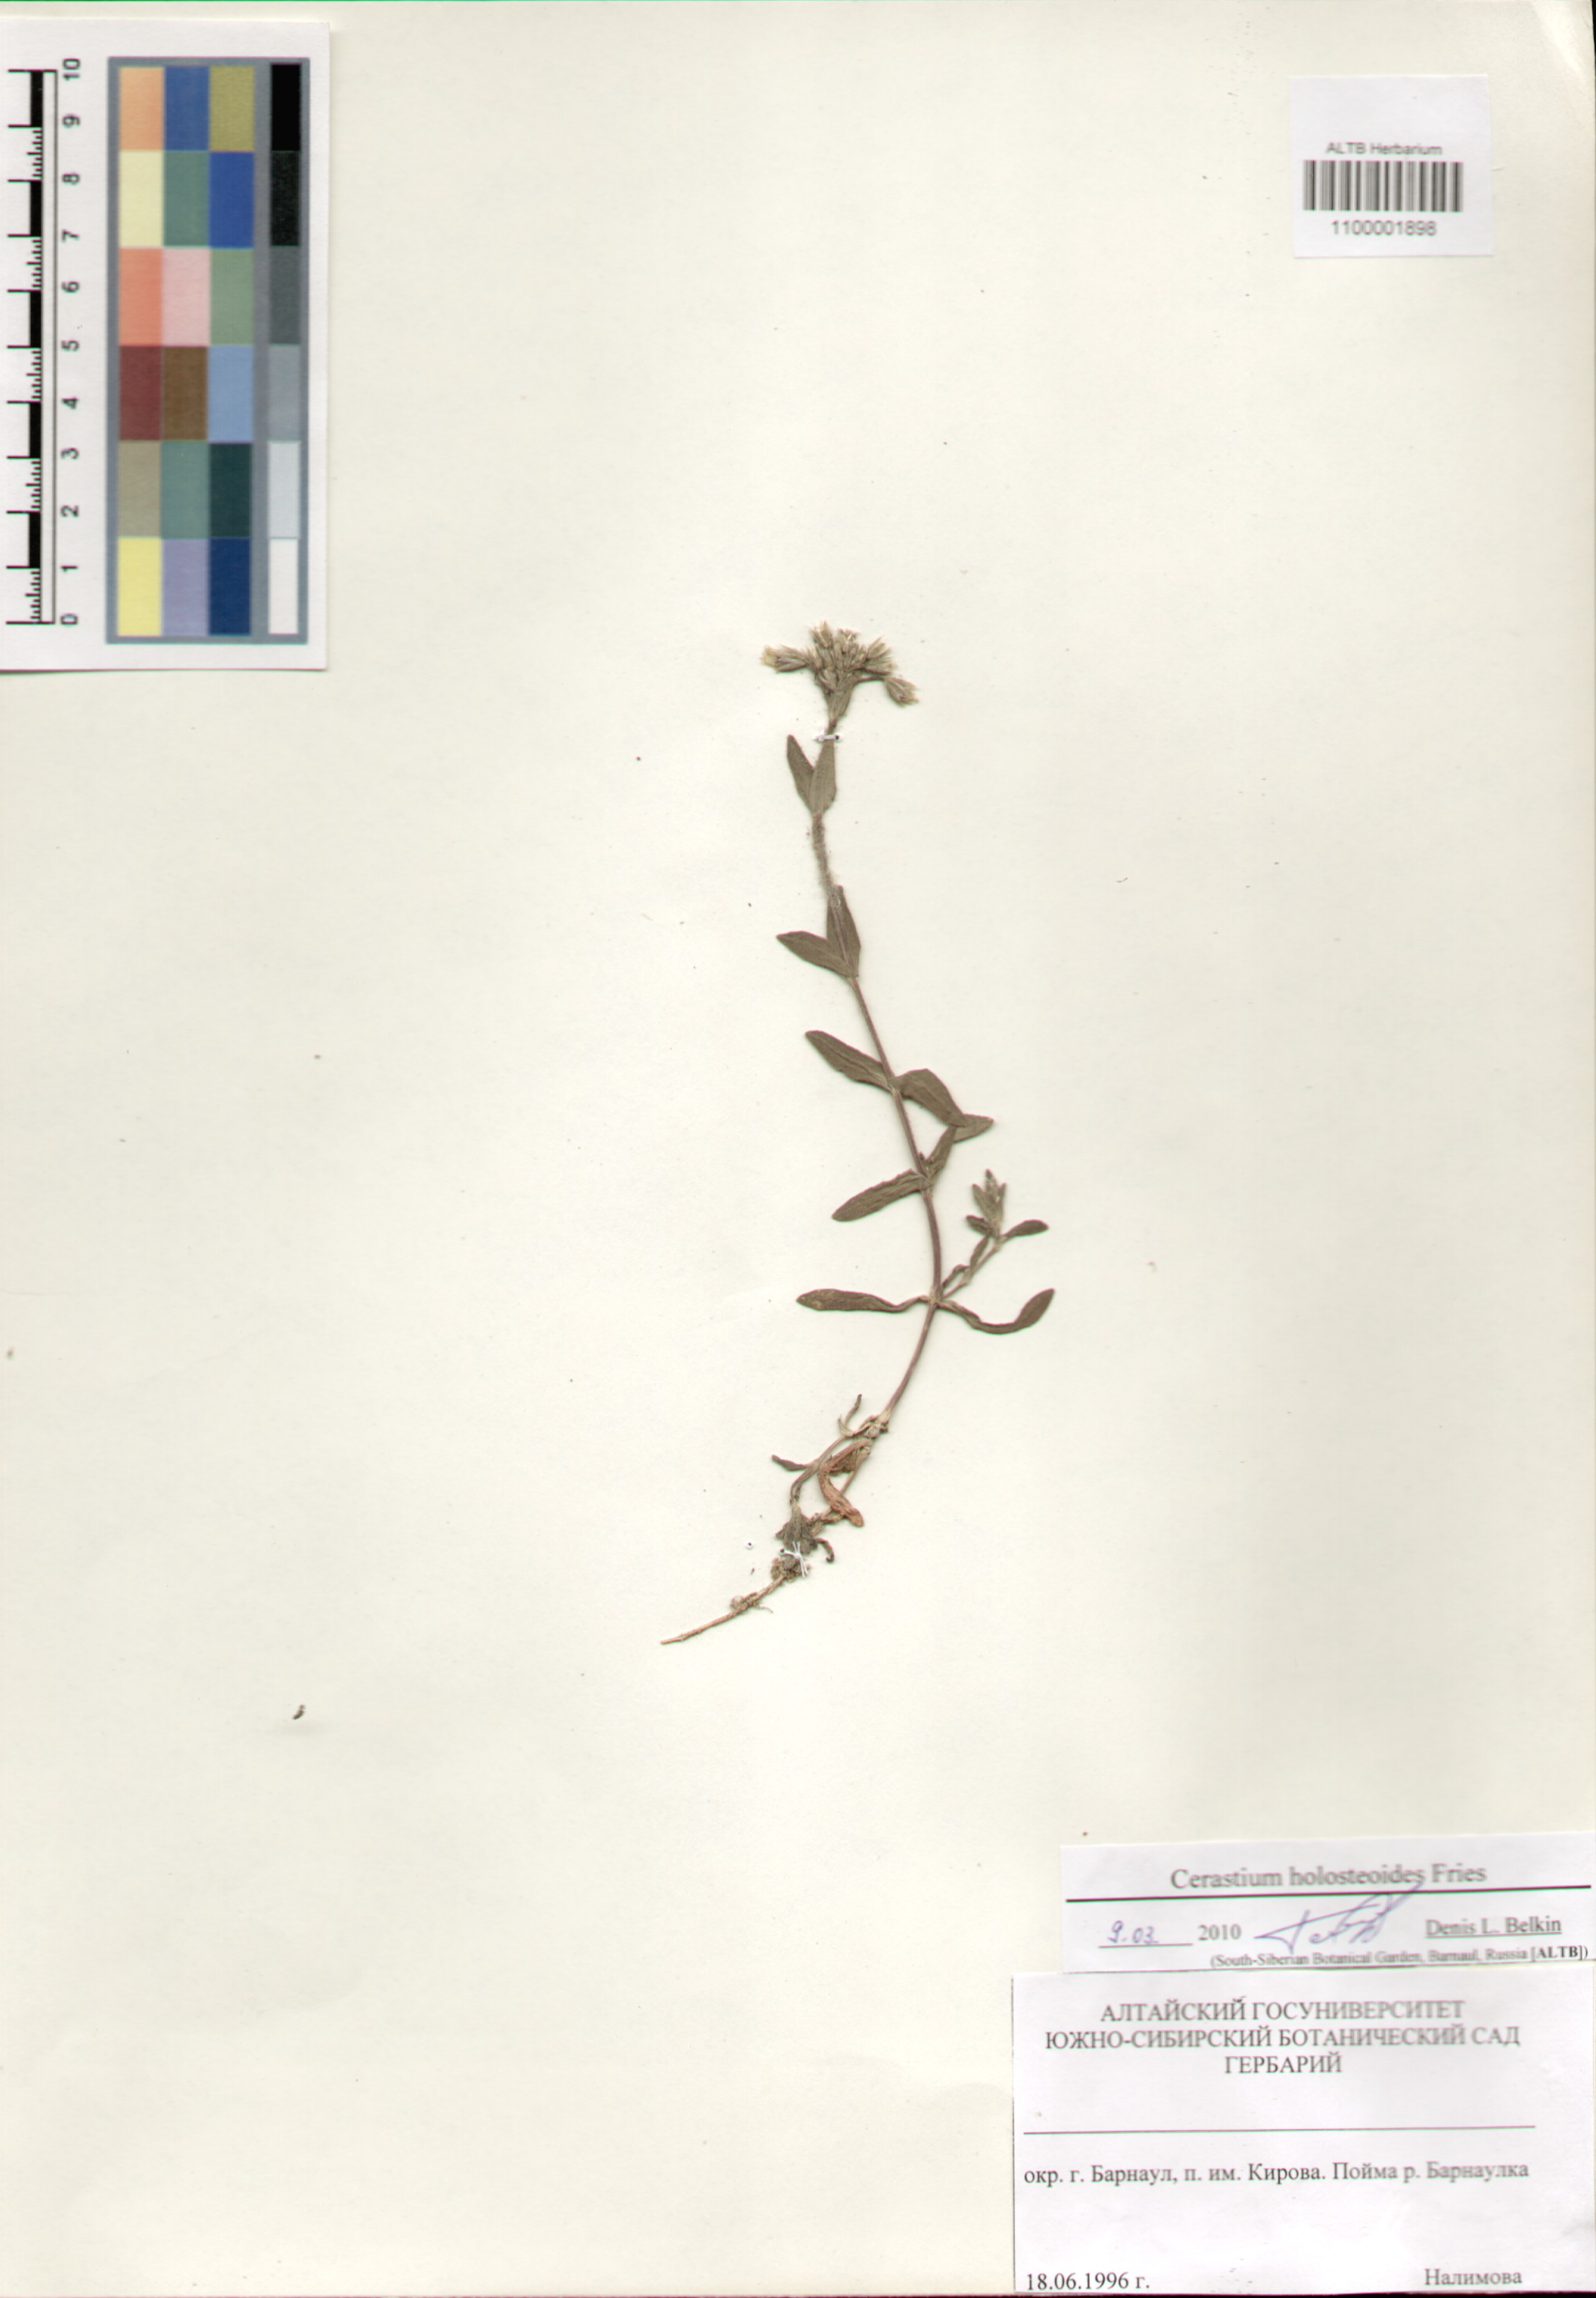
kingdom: Plantae
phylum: Tracheophyta
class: Magnoliopsida
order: Caryophyllales
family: Caryophyllaceae
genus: Cerastium
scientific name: Cerastium holosteoides
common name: Big chickweed
